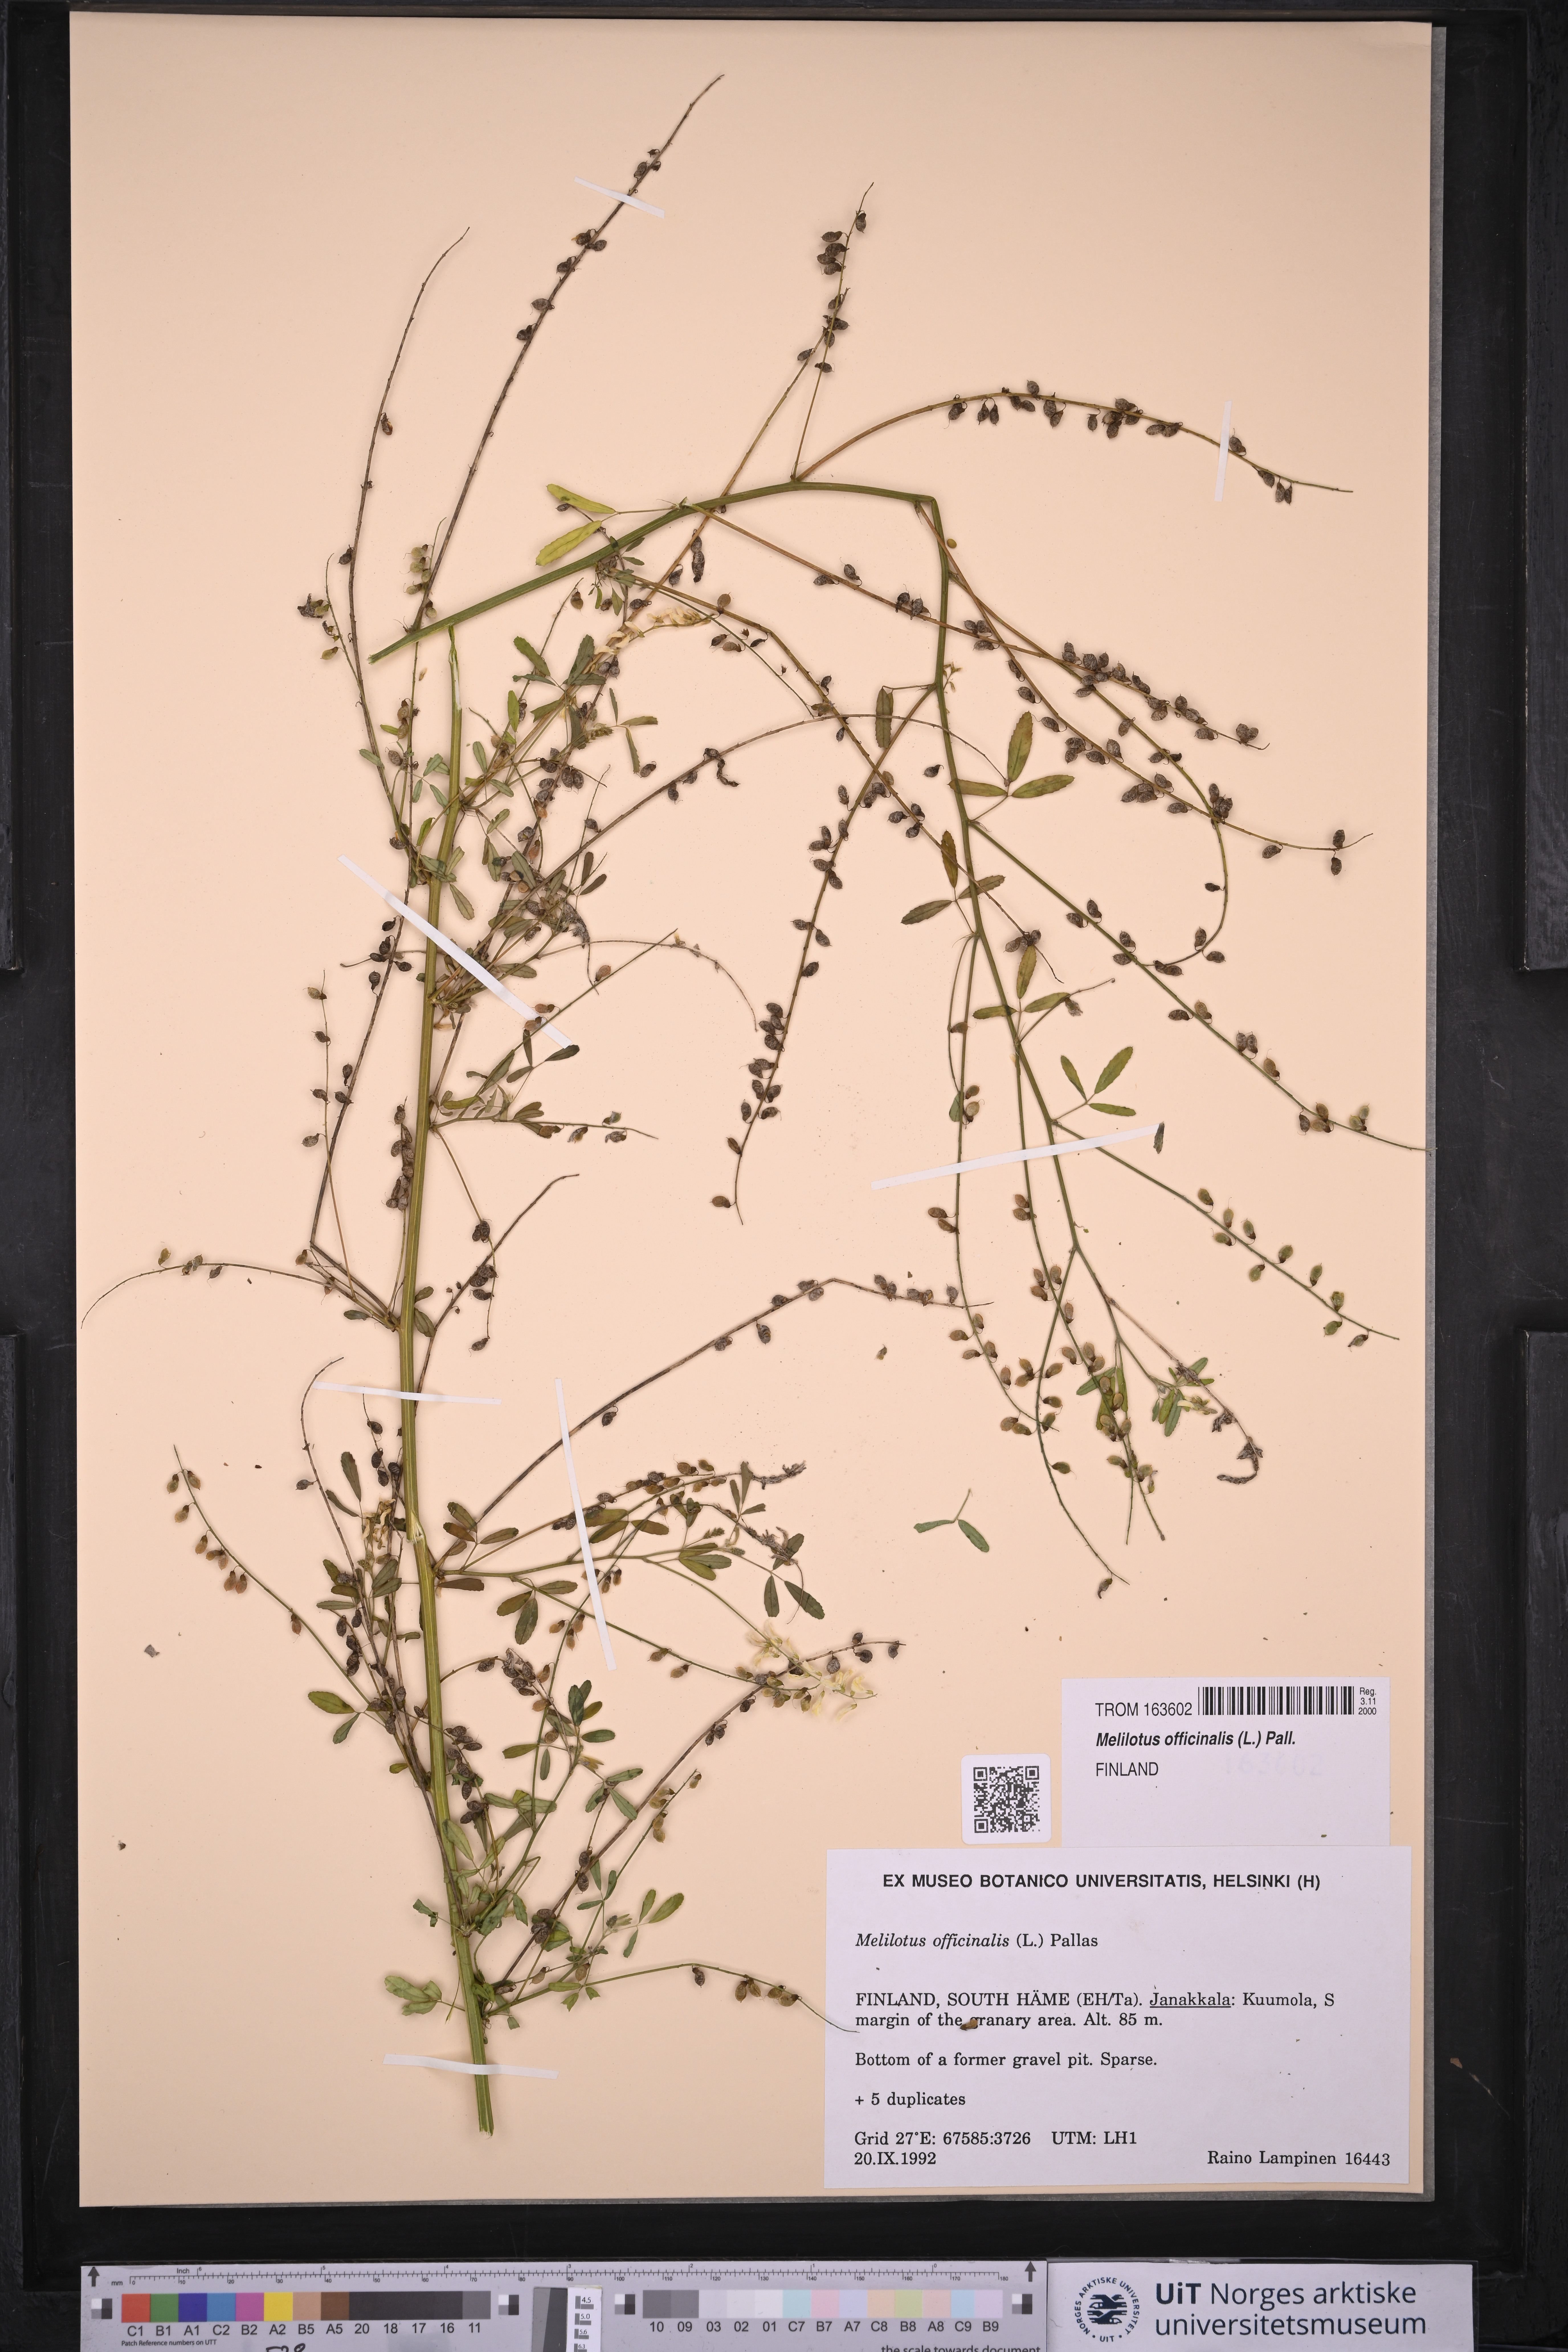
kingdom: Plantae
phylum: Tracheophyta
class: Magnoliopsida
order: Fabales
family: Fabaceae
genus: Melilotus
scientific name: Melilotus officinalis
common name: Sweetclover
